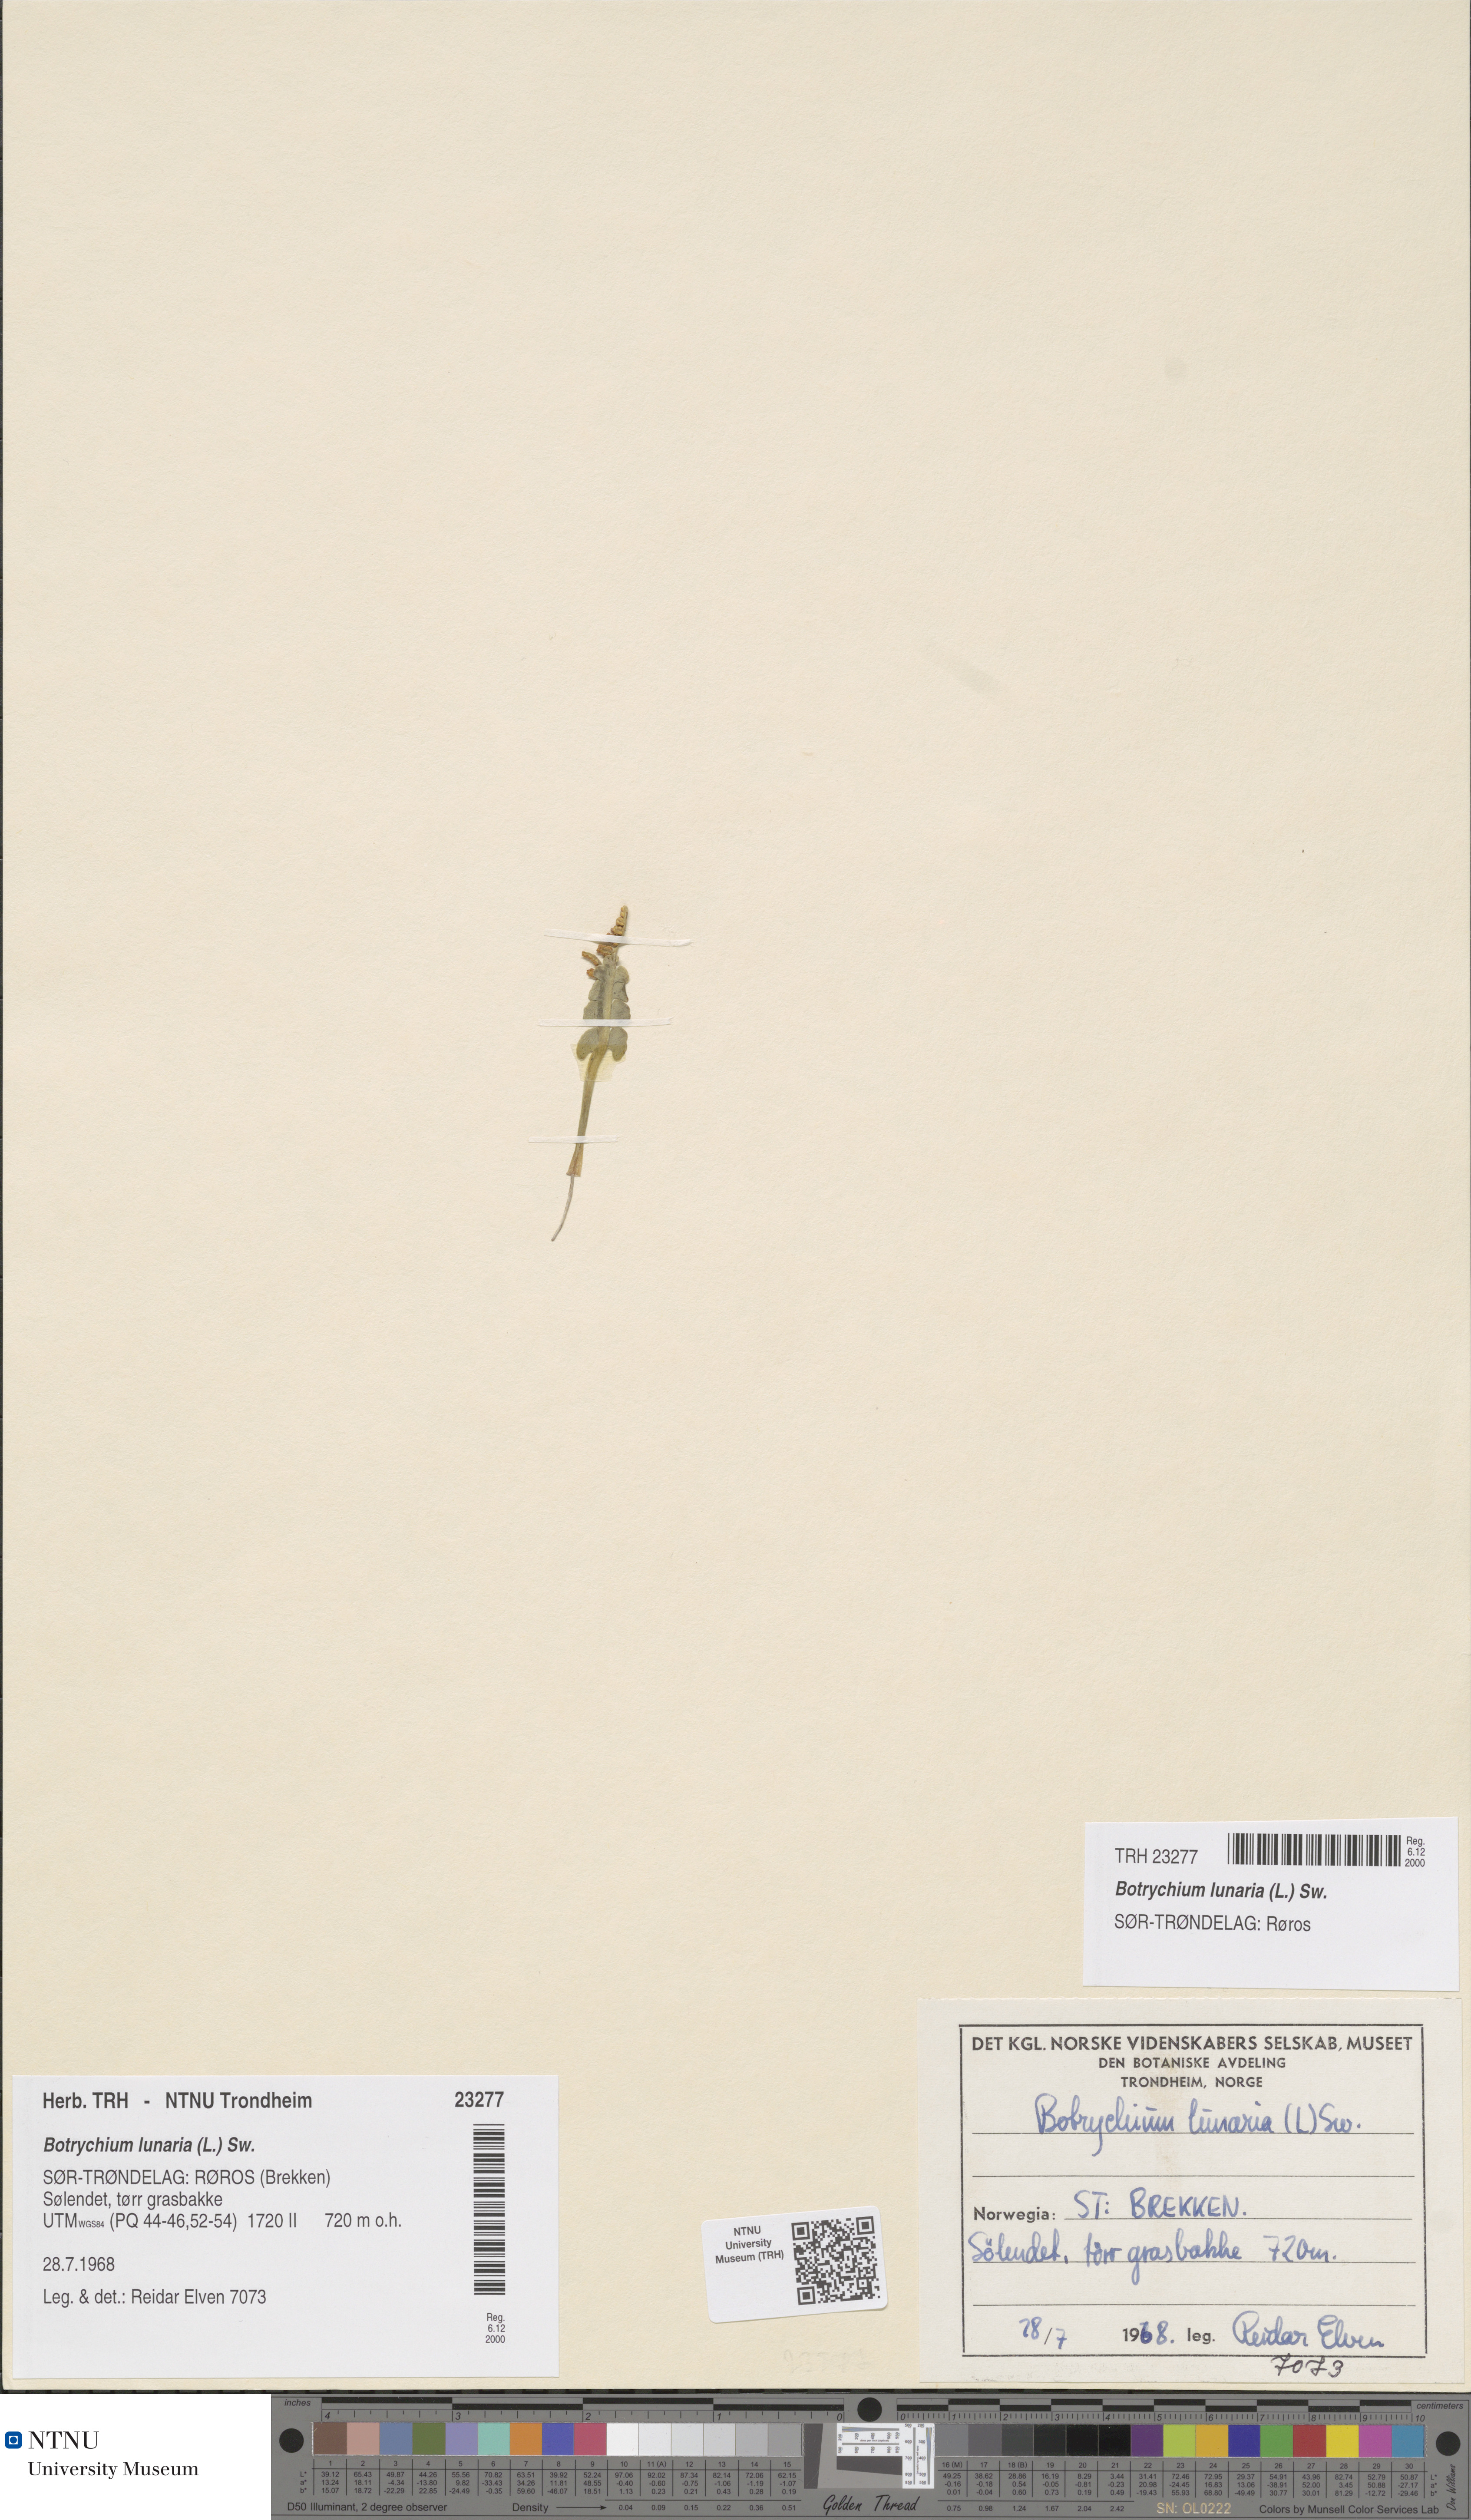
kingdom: Plantae
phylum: Tracheophyta
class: Polypodiopsida
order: Ophioglossales
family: Ophioglossaceae
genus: Botrychium
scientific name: Botrychium lunaria
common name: Moonwort
